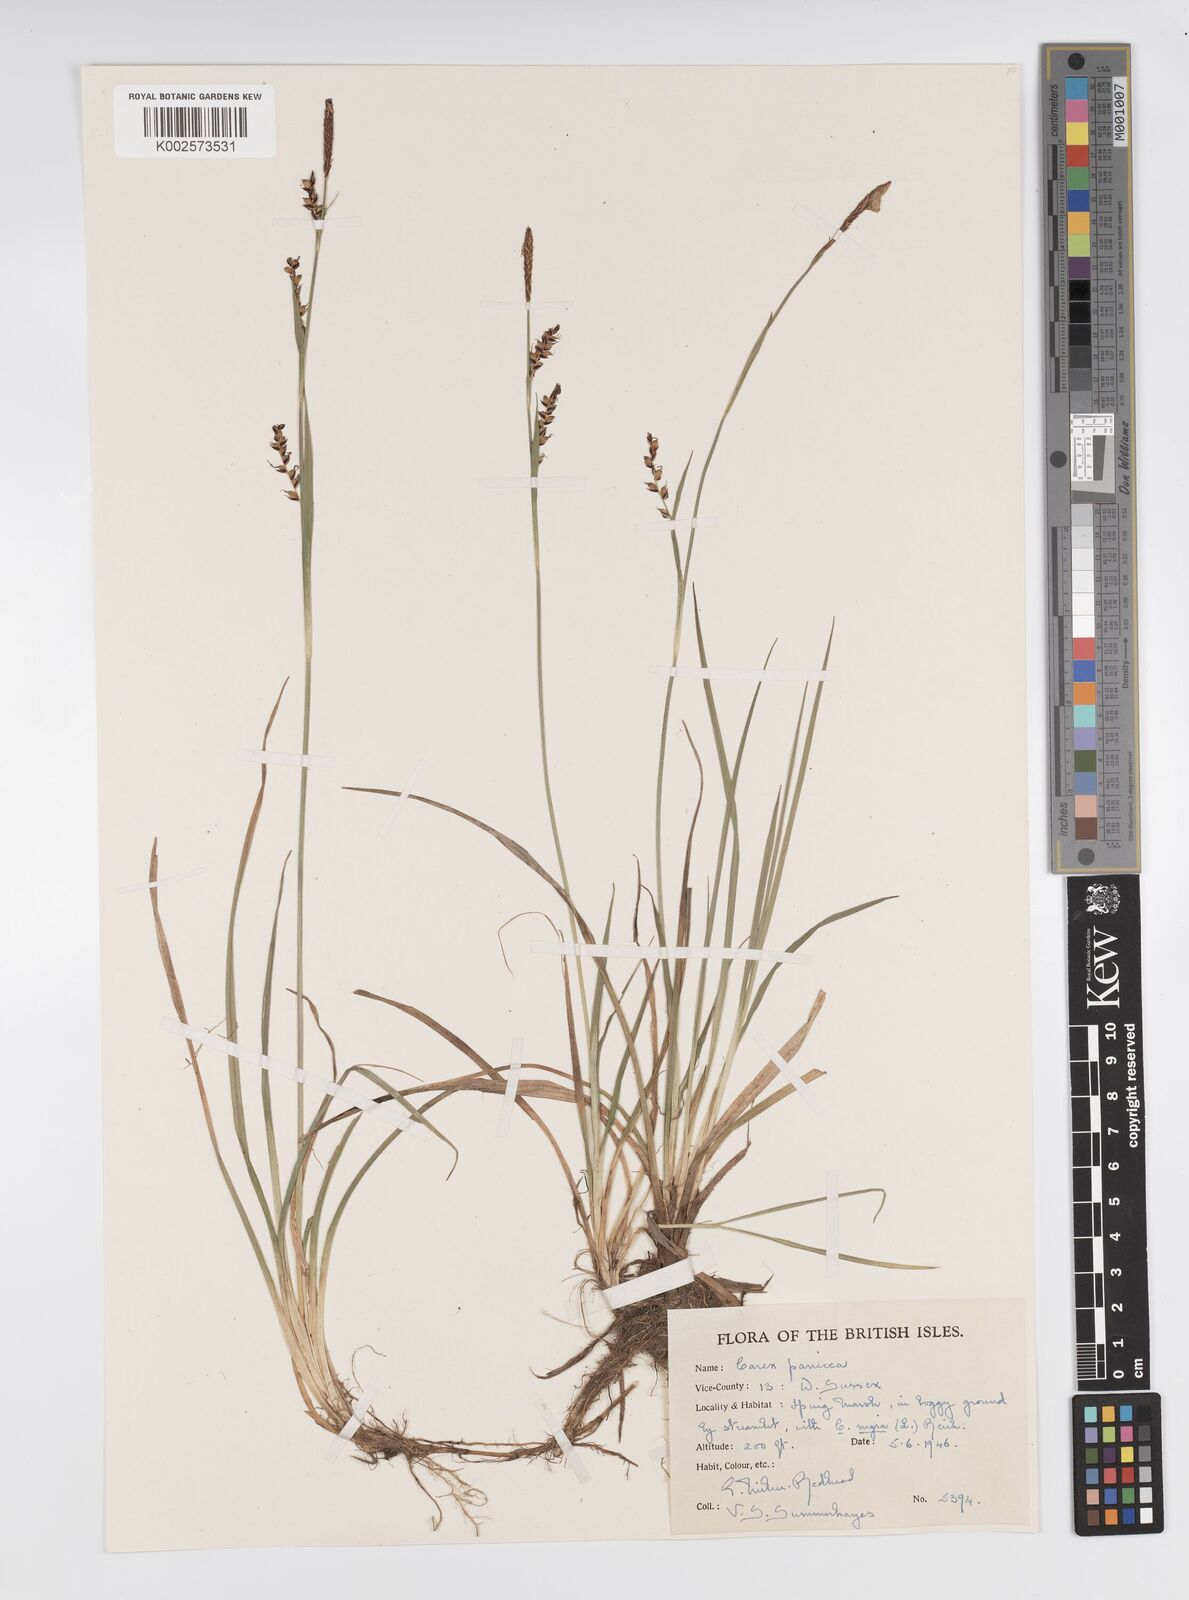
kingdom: Plantae
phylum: Tracheophyta
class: Liliopsida
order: Poales
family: Cyperaceae
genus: Carex
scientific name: Carex panicea
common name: Carnation sedge
